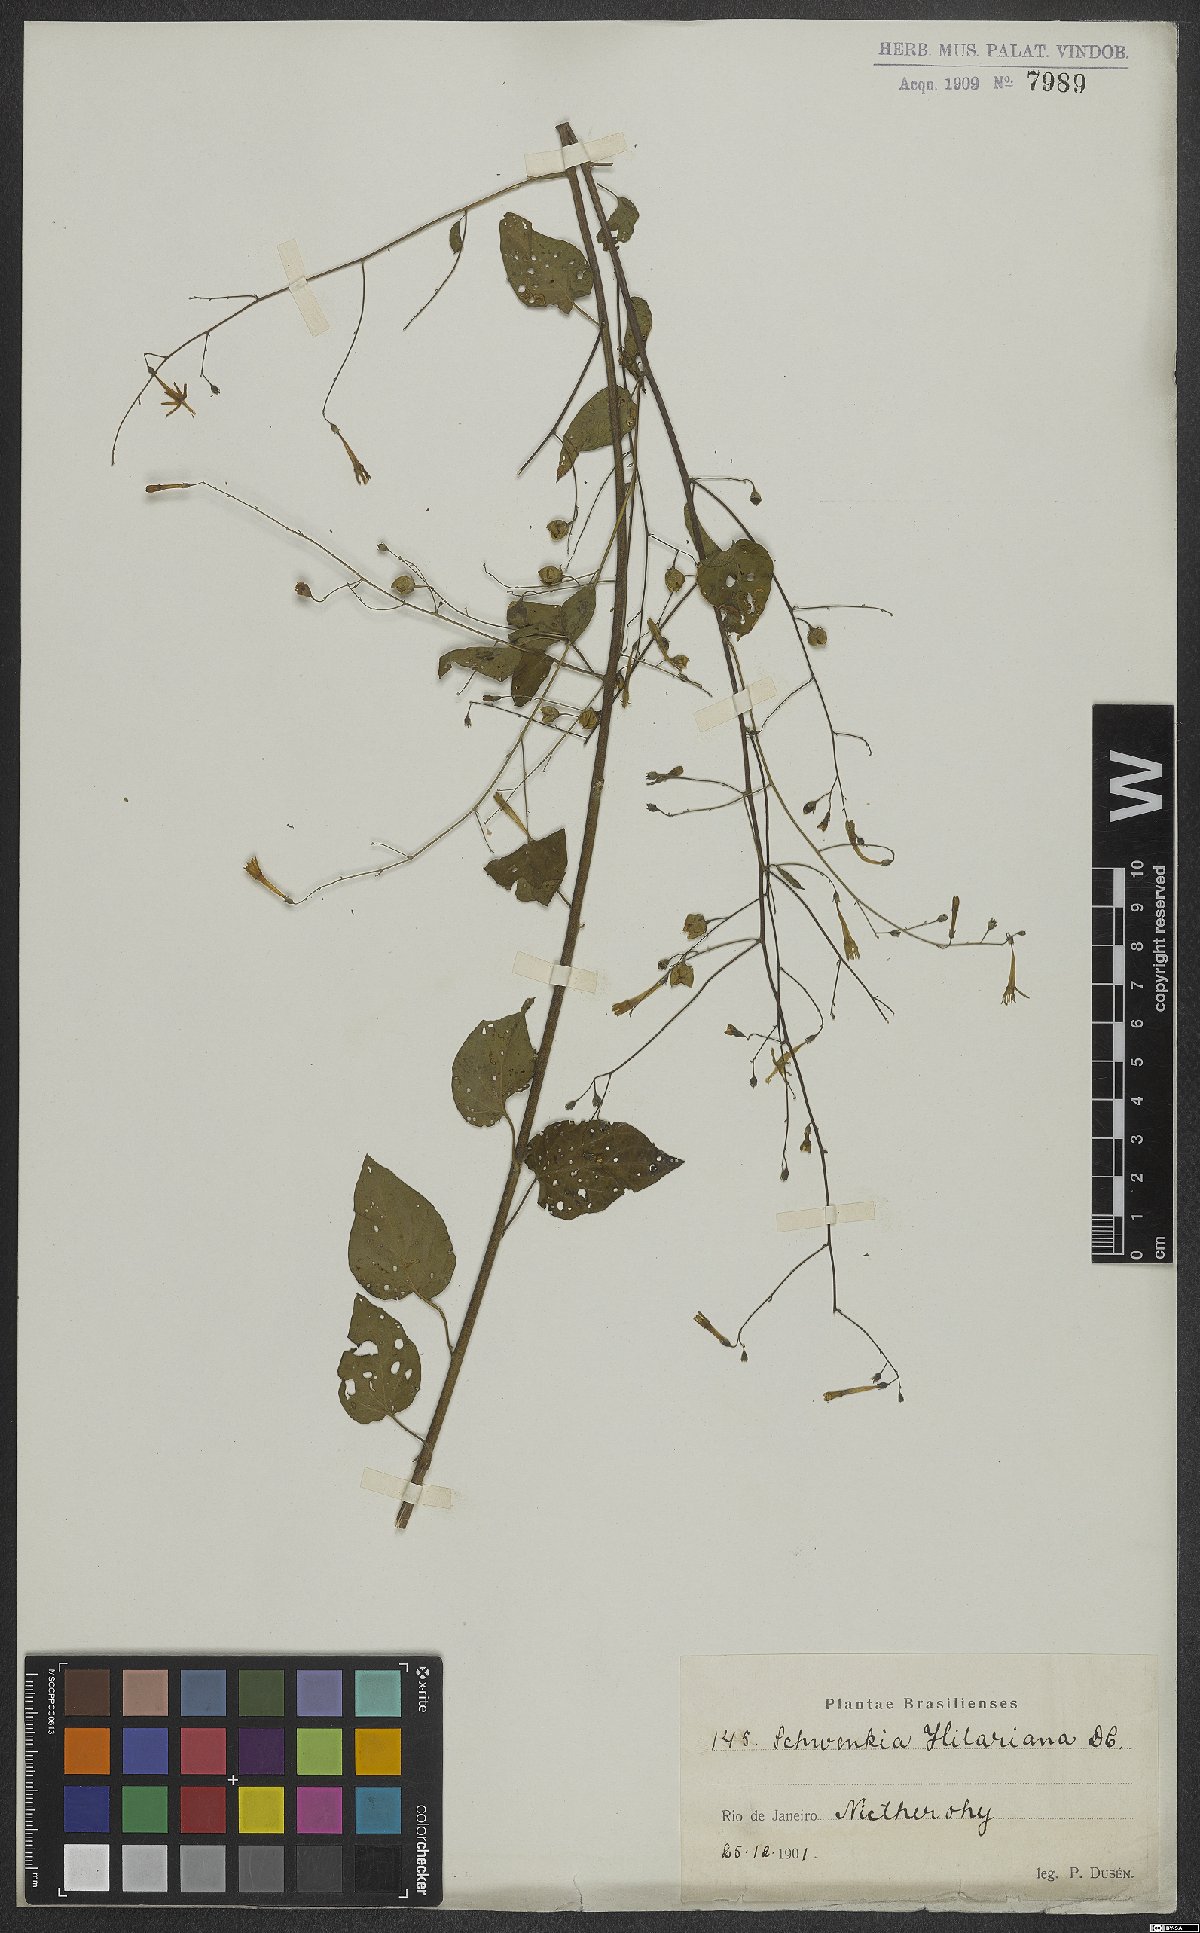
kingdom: Plantae
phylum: Tracheophyta
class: Magnoliopsida
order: Solanales
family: Solanaceae
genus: Schwenckia
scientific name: Schwenckia americana
